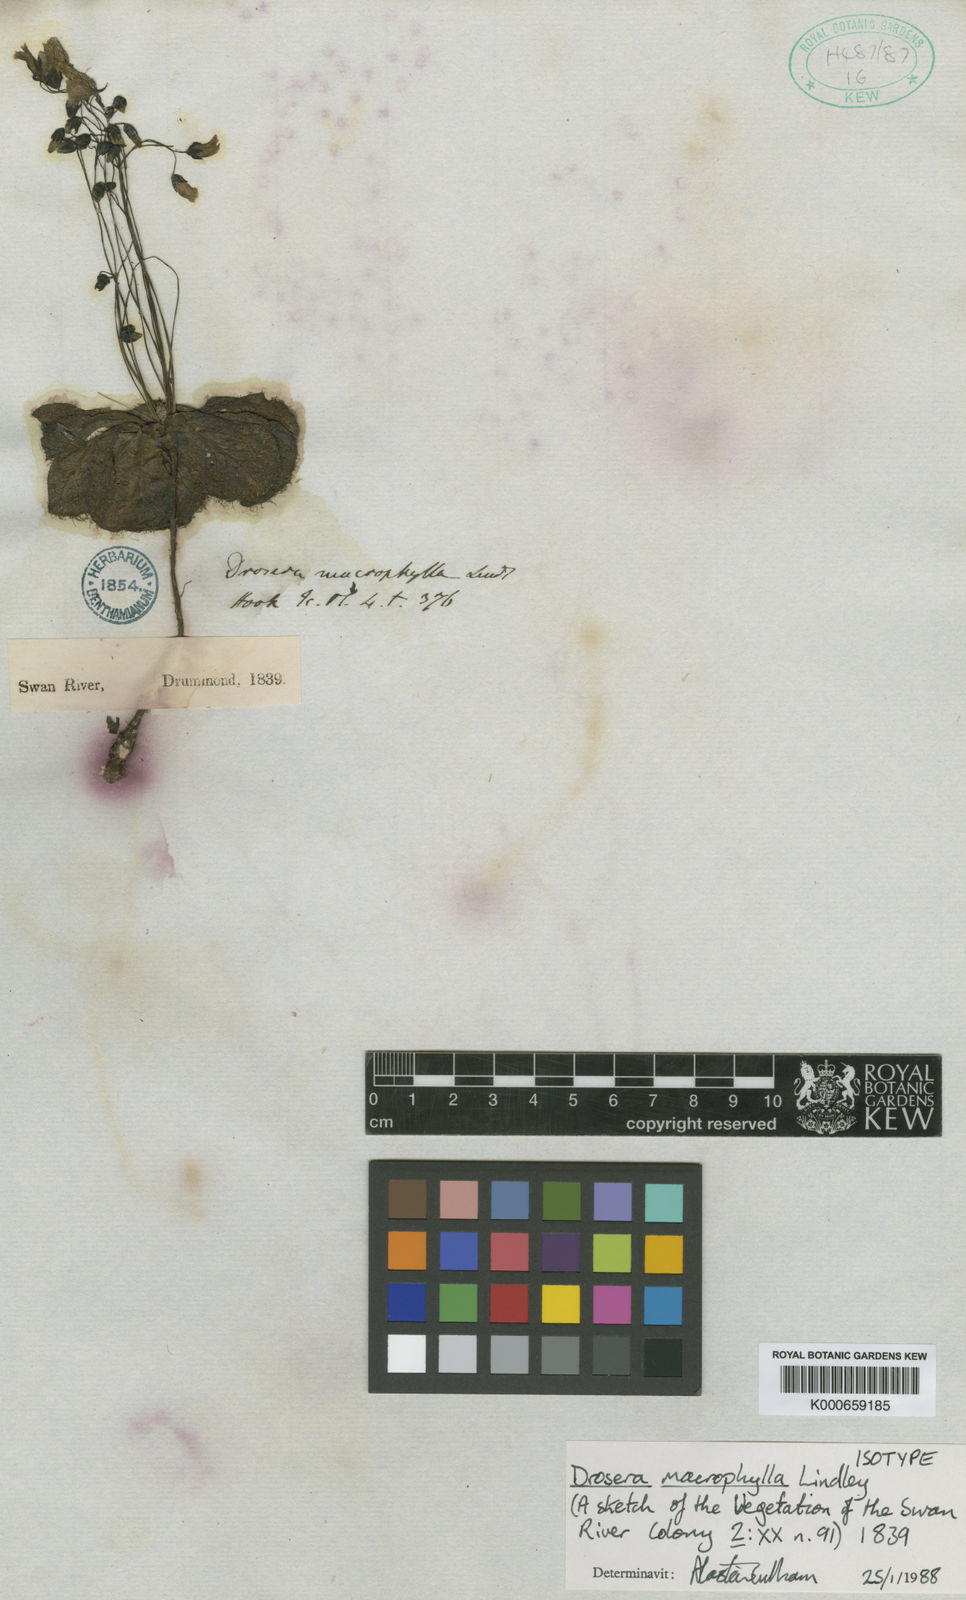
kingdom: Plantae
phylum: Tracheophyta
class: Magnoliopsida
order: Caryophyllales
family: Droseraceae
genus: Drosera
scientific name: Drosera macrophylla
